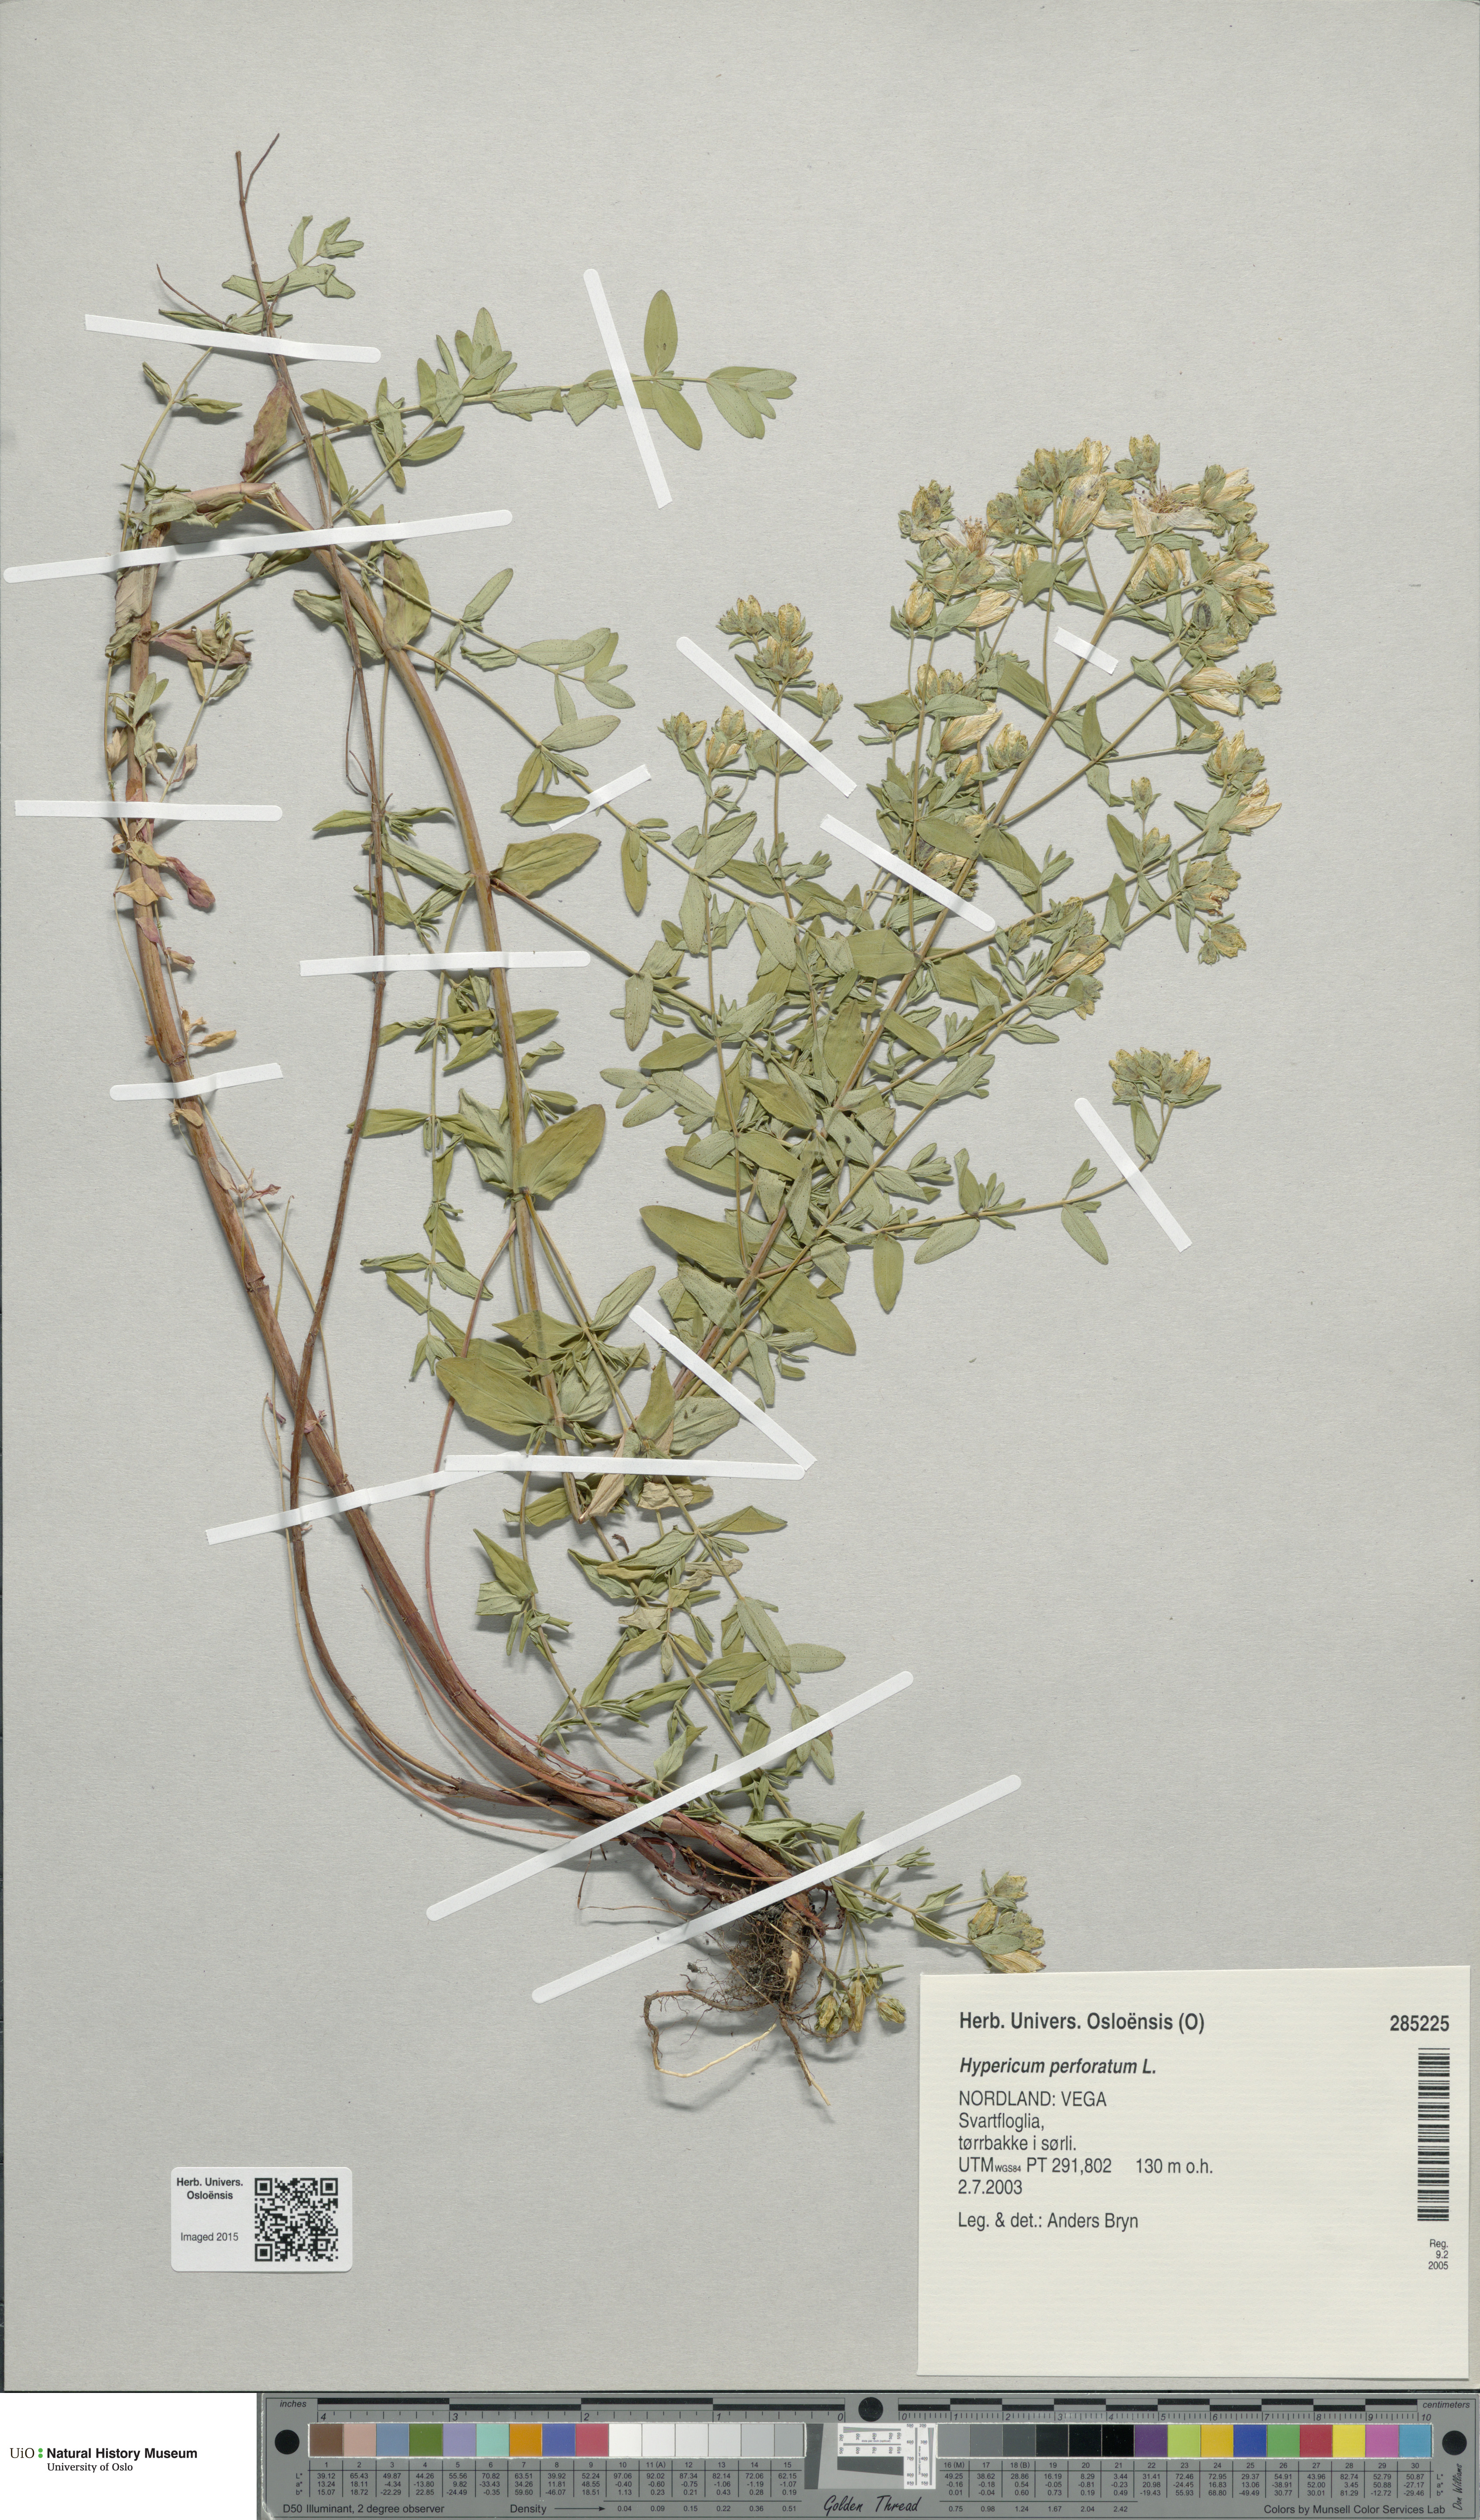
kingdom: Plantae
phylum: Tracheophyta
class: Magnoliopsida
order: Malpighiales
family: Hypericaceae
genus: Hypericum
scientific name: Hypericum perforatum
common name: Common st. johnswort
